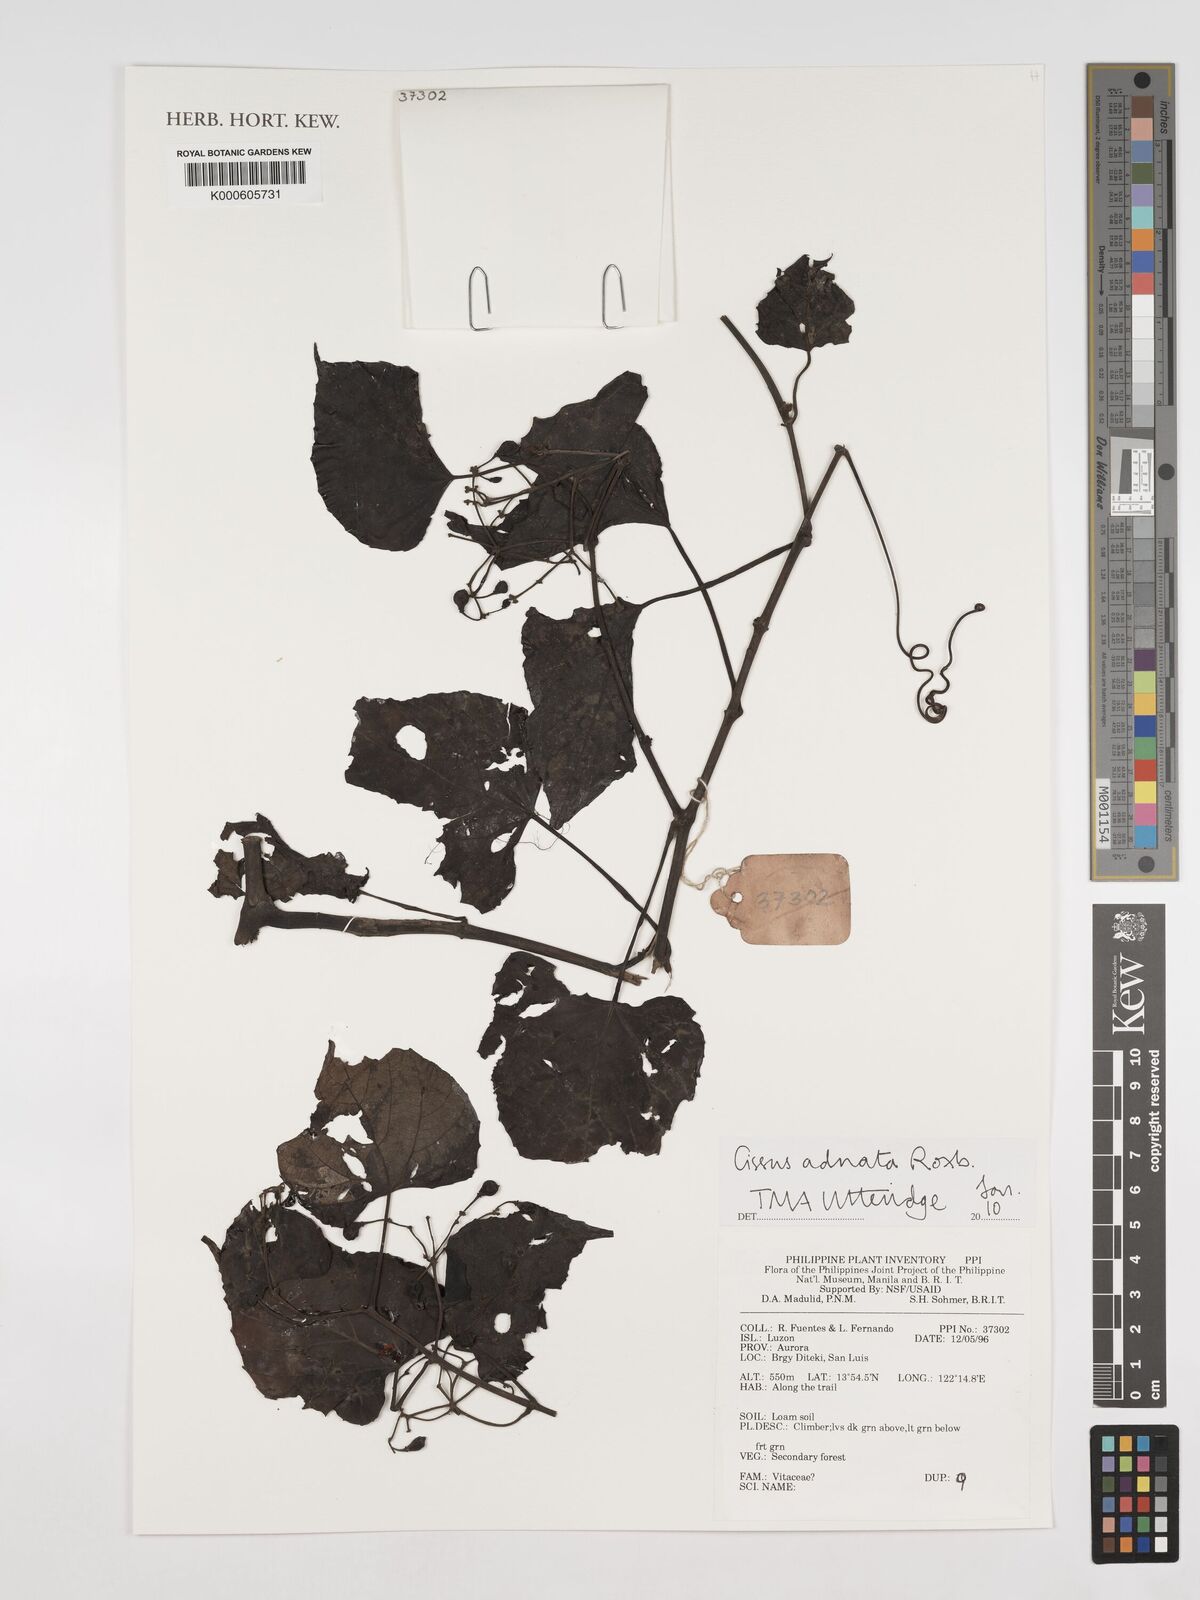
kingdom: Plantae
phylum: Tracheophyta
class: Magnoliopsida
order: Vitales
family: Vitaceae
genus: Cissus
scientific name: Cissus adnata
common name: Heart-leaf-grape
